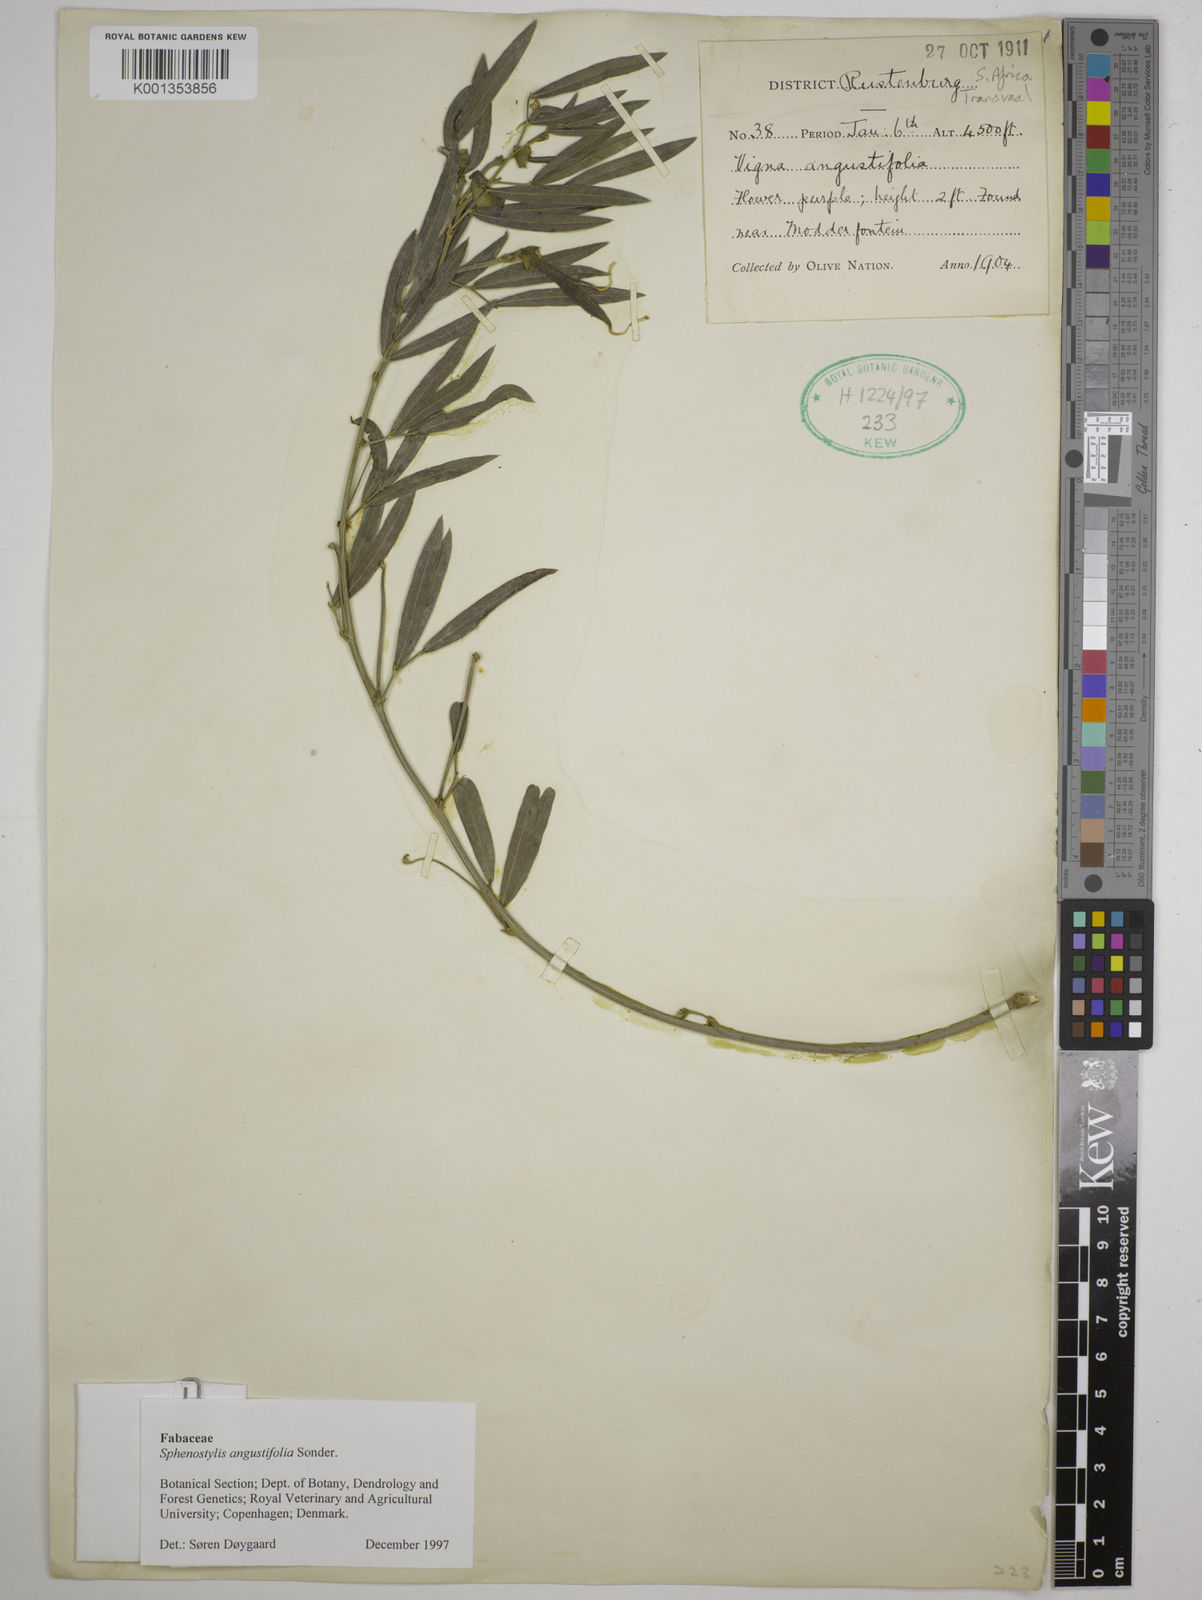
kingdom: Plantae
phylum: Tracheophyta
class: Magnoliopsida
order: Fabales
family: Fabaceae
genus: Sphenostylis
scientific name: Sphenostylis angustifolia
